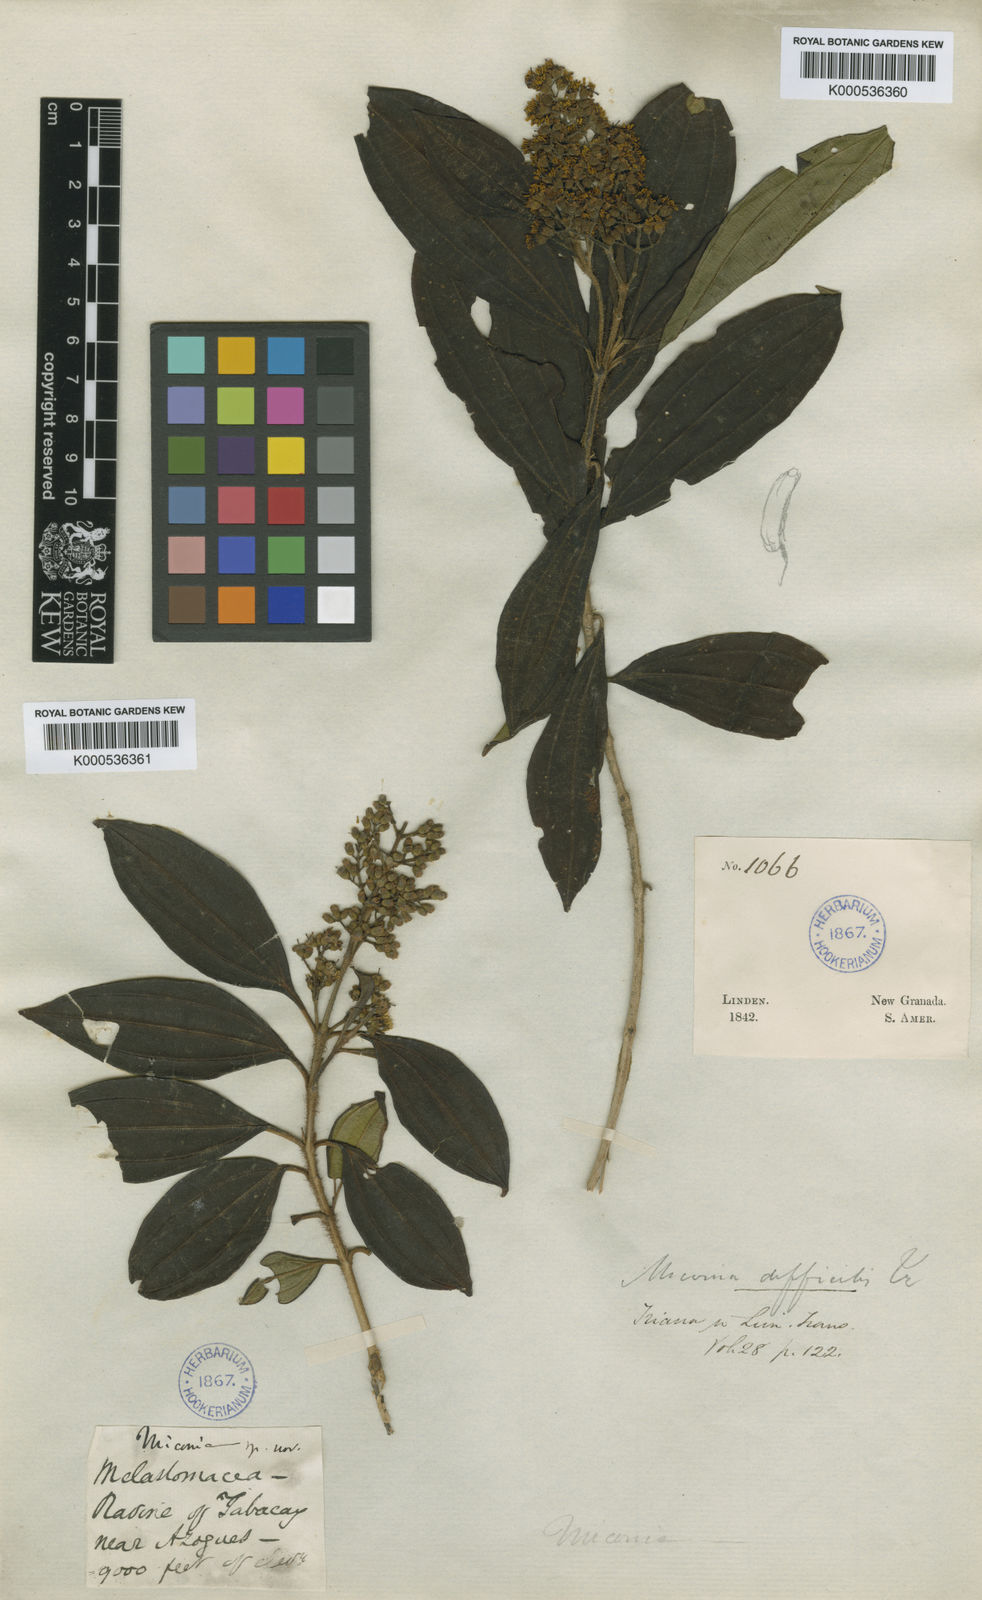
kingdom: Plantae
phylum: Tracheophyta
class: Magnoliopsida
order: Myrtales
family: Melastomataceae
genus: Miconia
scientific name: Miconia difficilis
